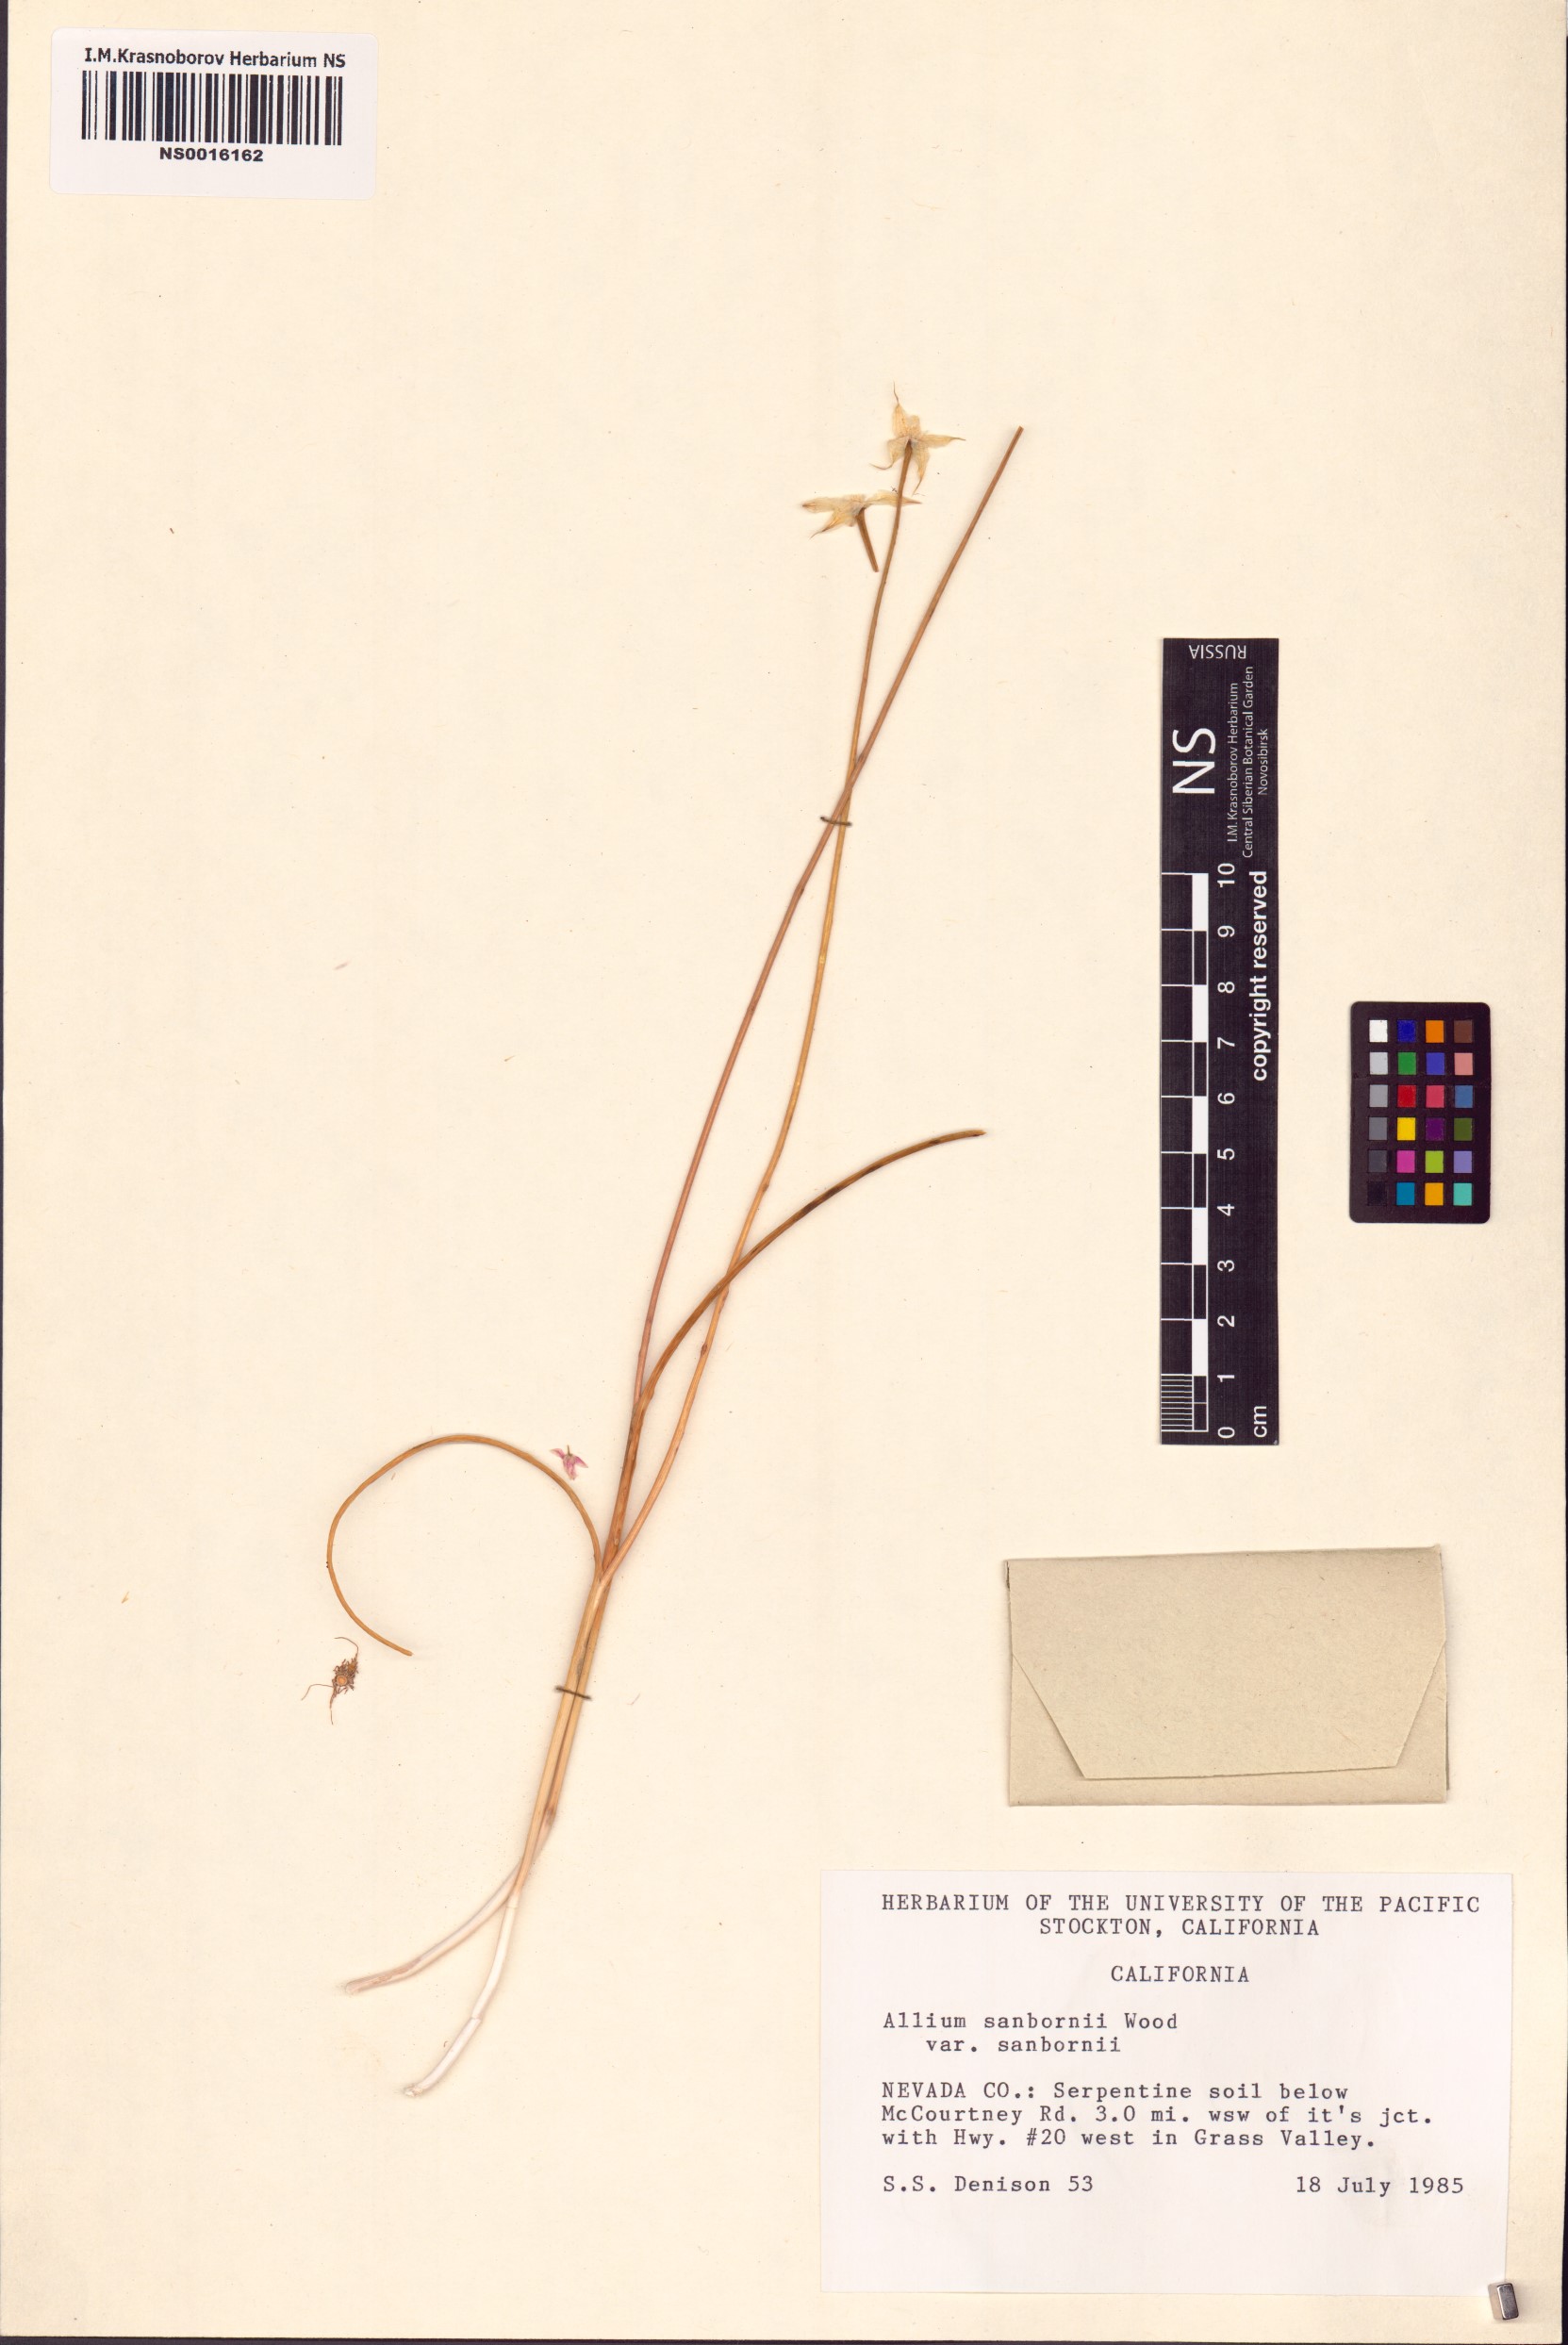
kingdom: Plantae
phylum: Tracheophyta
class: Liliopsida
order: Asparagales
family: Amaryllidaceae
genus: Allium
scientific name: Allium sanbornii
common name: Sanborn's onion
